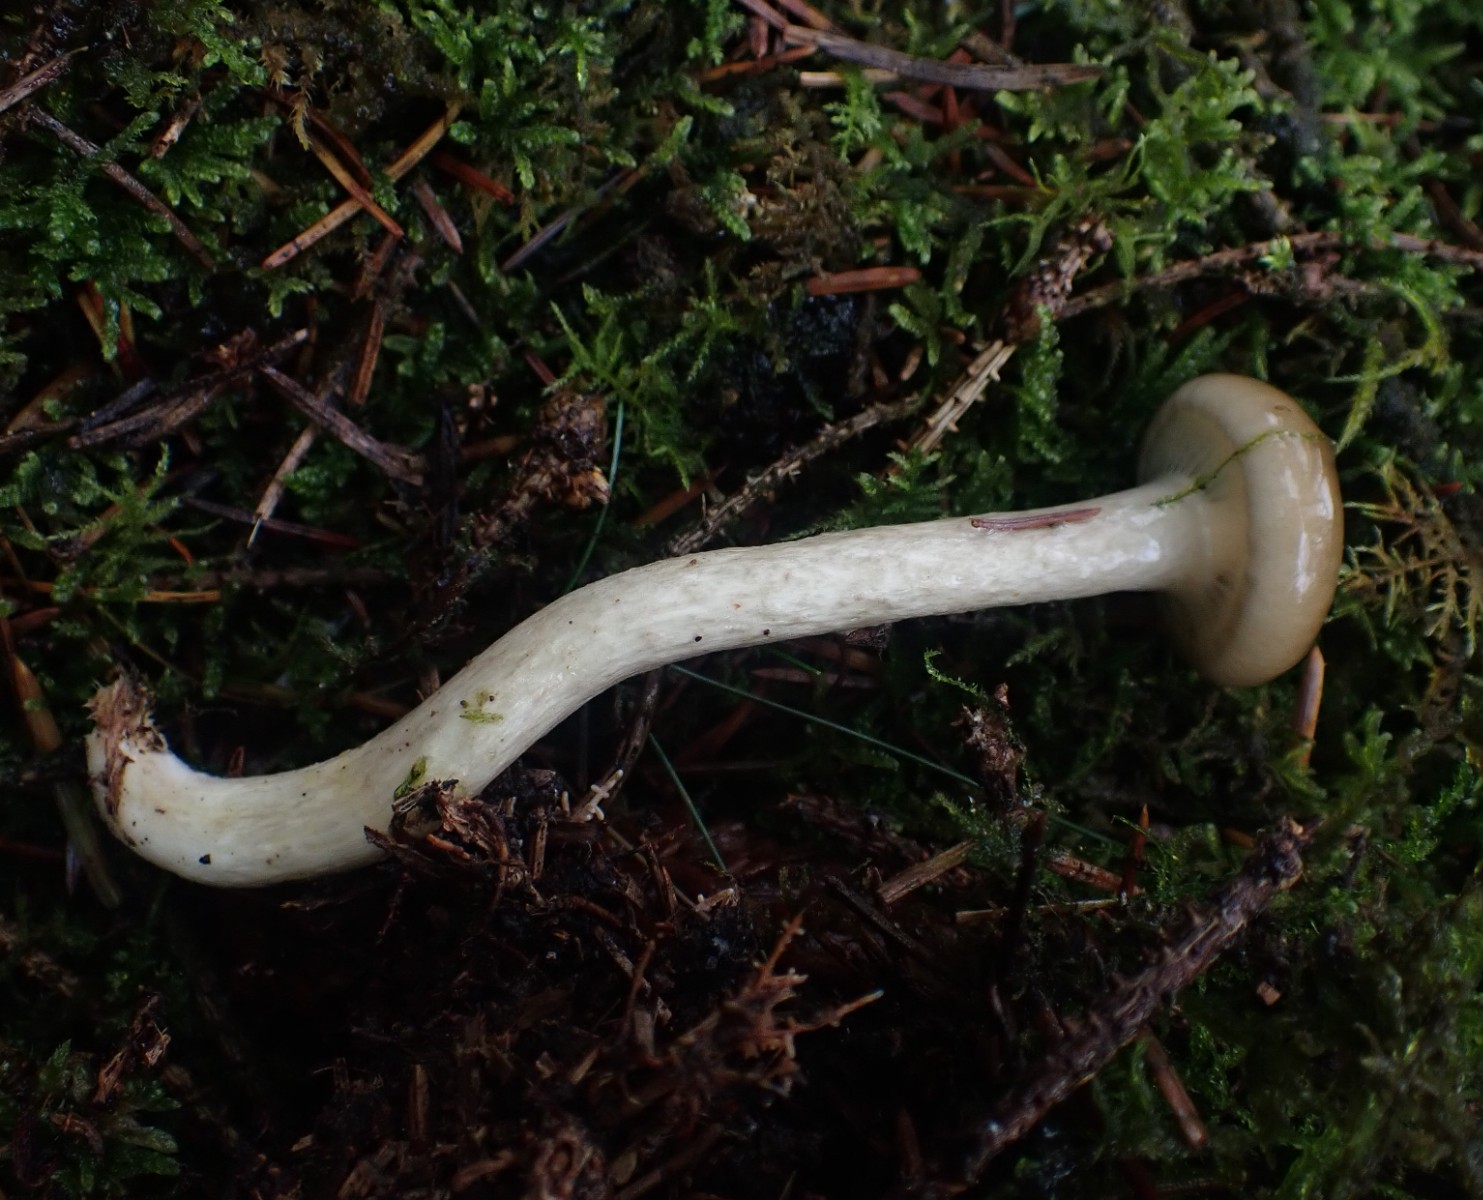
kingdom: Fungi
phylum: Basidiomycota
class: Agaricomycetes
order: Agaricales
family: Hygrophoraceae
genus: Hygrophorus
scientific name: Hygrophorus olivaceoalbus
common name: hvidbrun sneglehat
